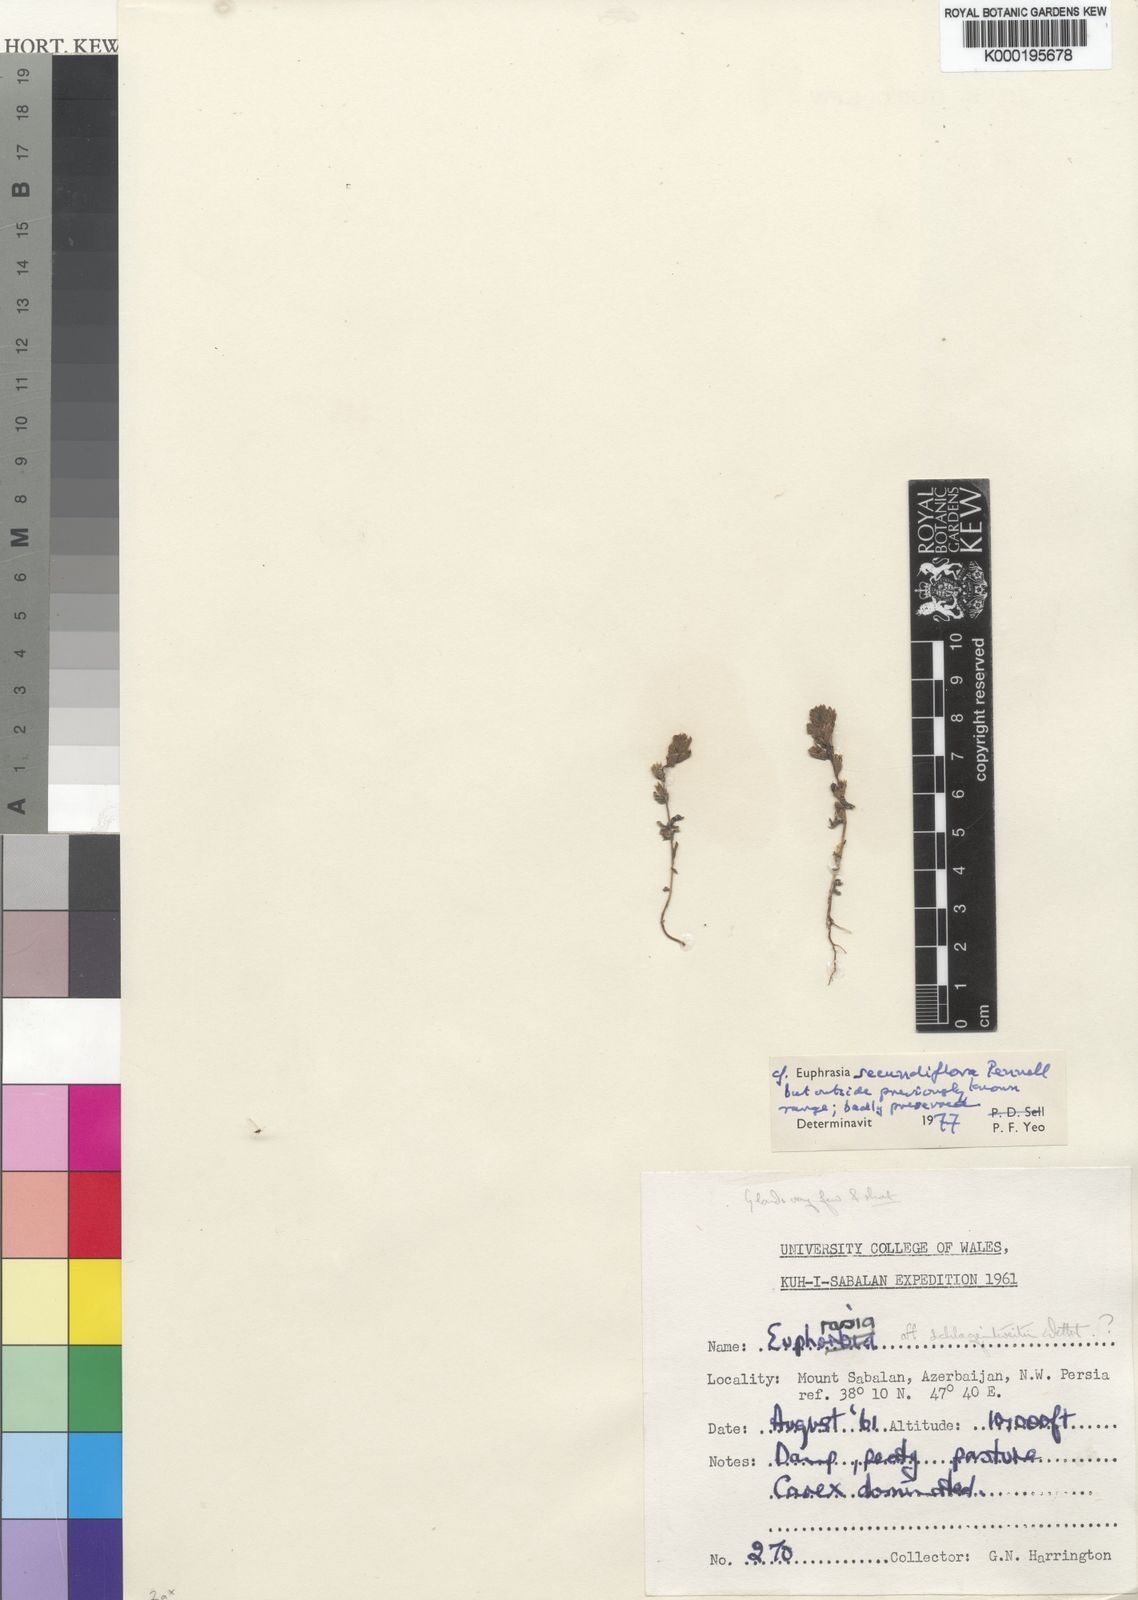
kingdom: Plantae
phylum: Tracheophyta
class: Magnoliopsida
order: Lamiales
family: Orobanchaceae
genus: Euphrasia
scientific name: Euphrasia secundiflora
